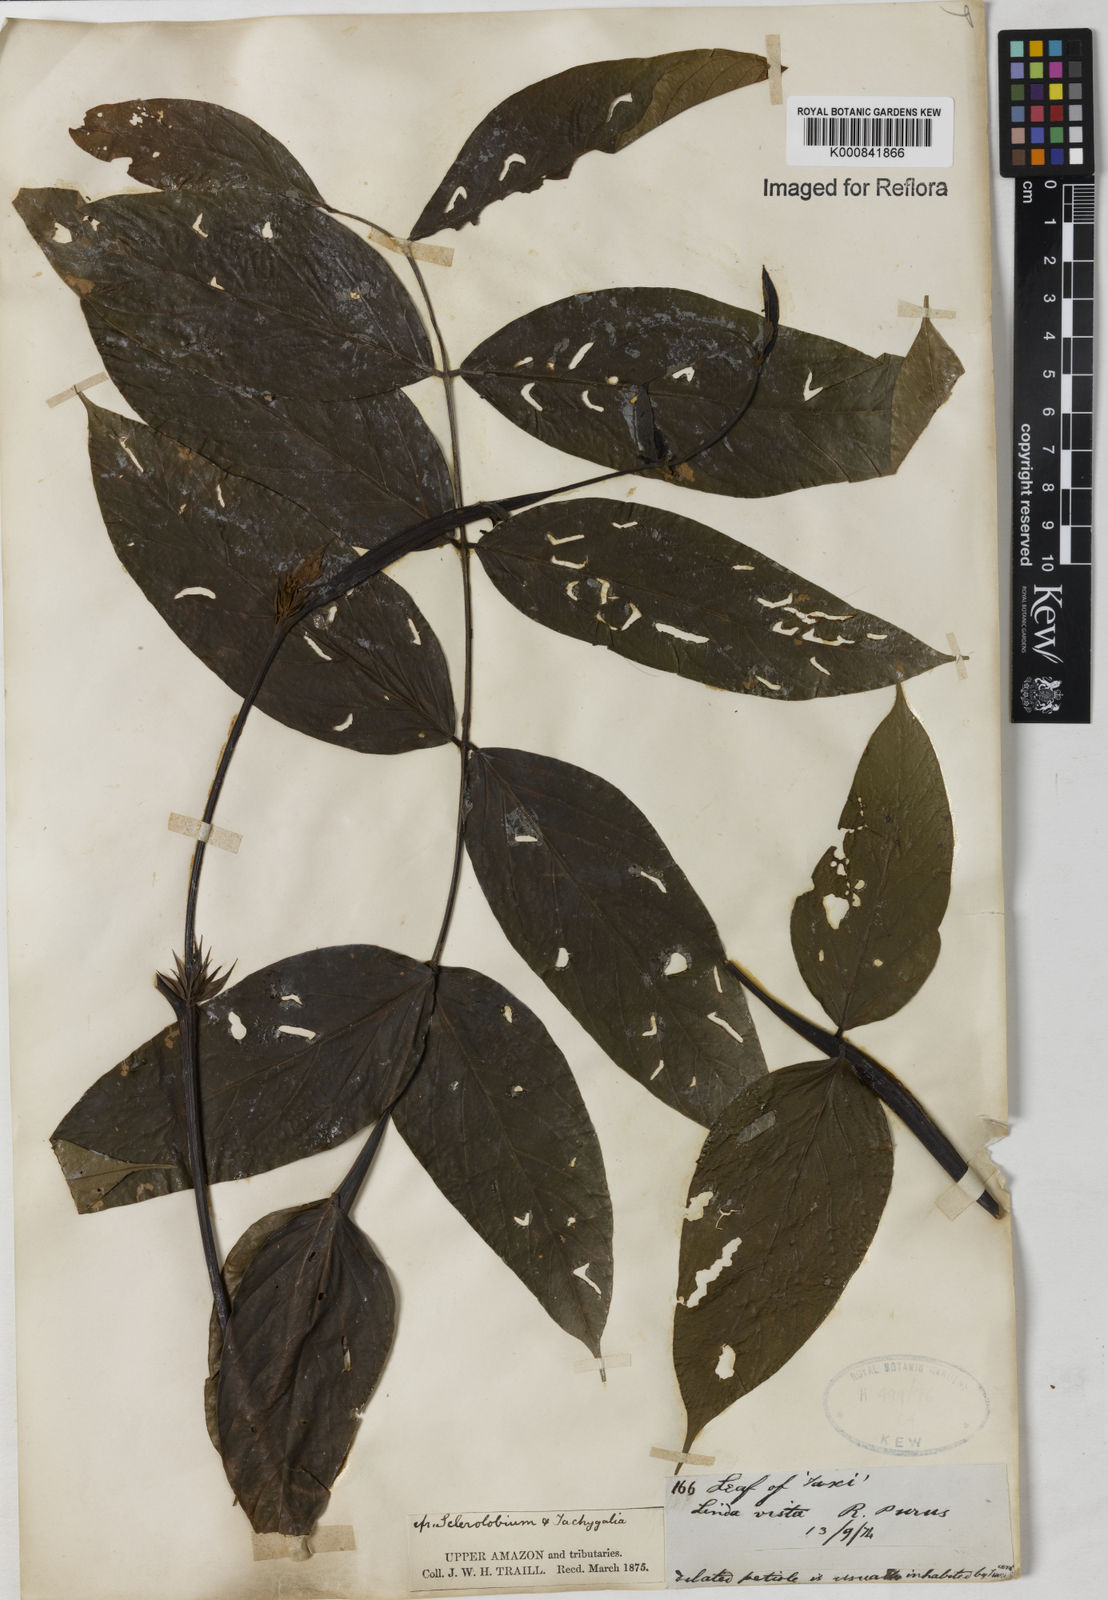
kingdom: Plantae
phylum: Tracheophyta
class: Magnoliopsida
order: Fabales
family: Fabaceae
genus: Tachigali
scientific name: Tachigali
